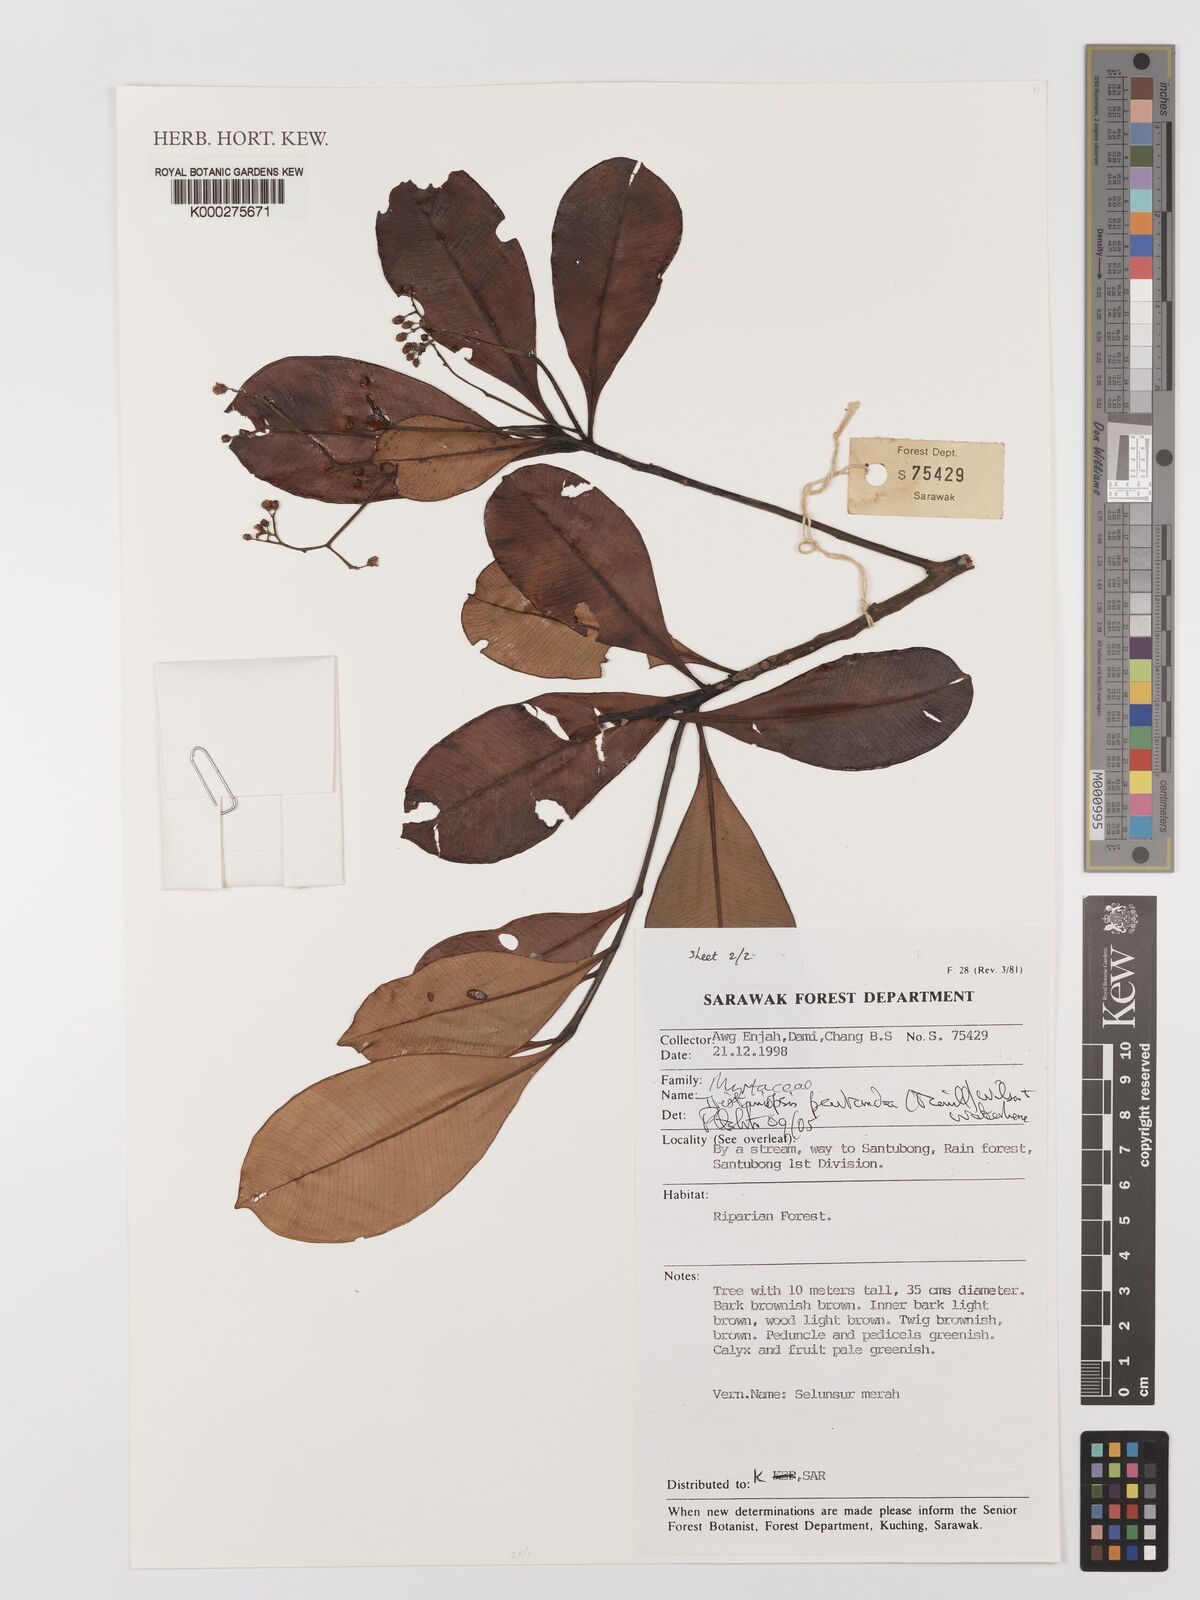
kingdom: Plantae
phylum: Tracheophyta
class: Magnoliopsida
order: Myrtales
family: Myrtaceae
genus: Tristaniopsis
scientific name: Tristaniopsis pentandra
